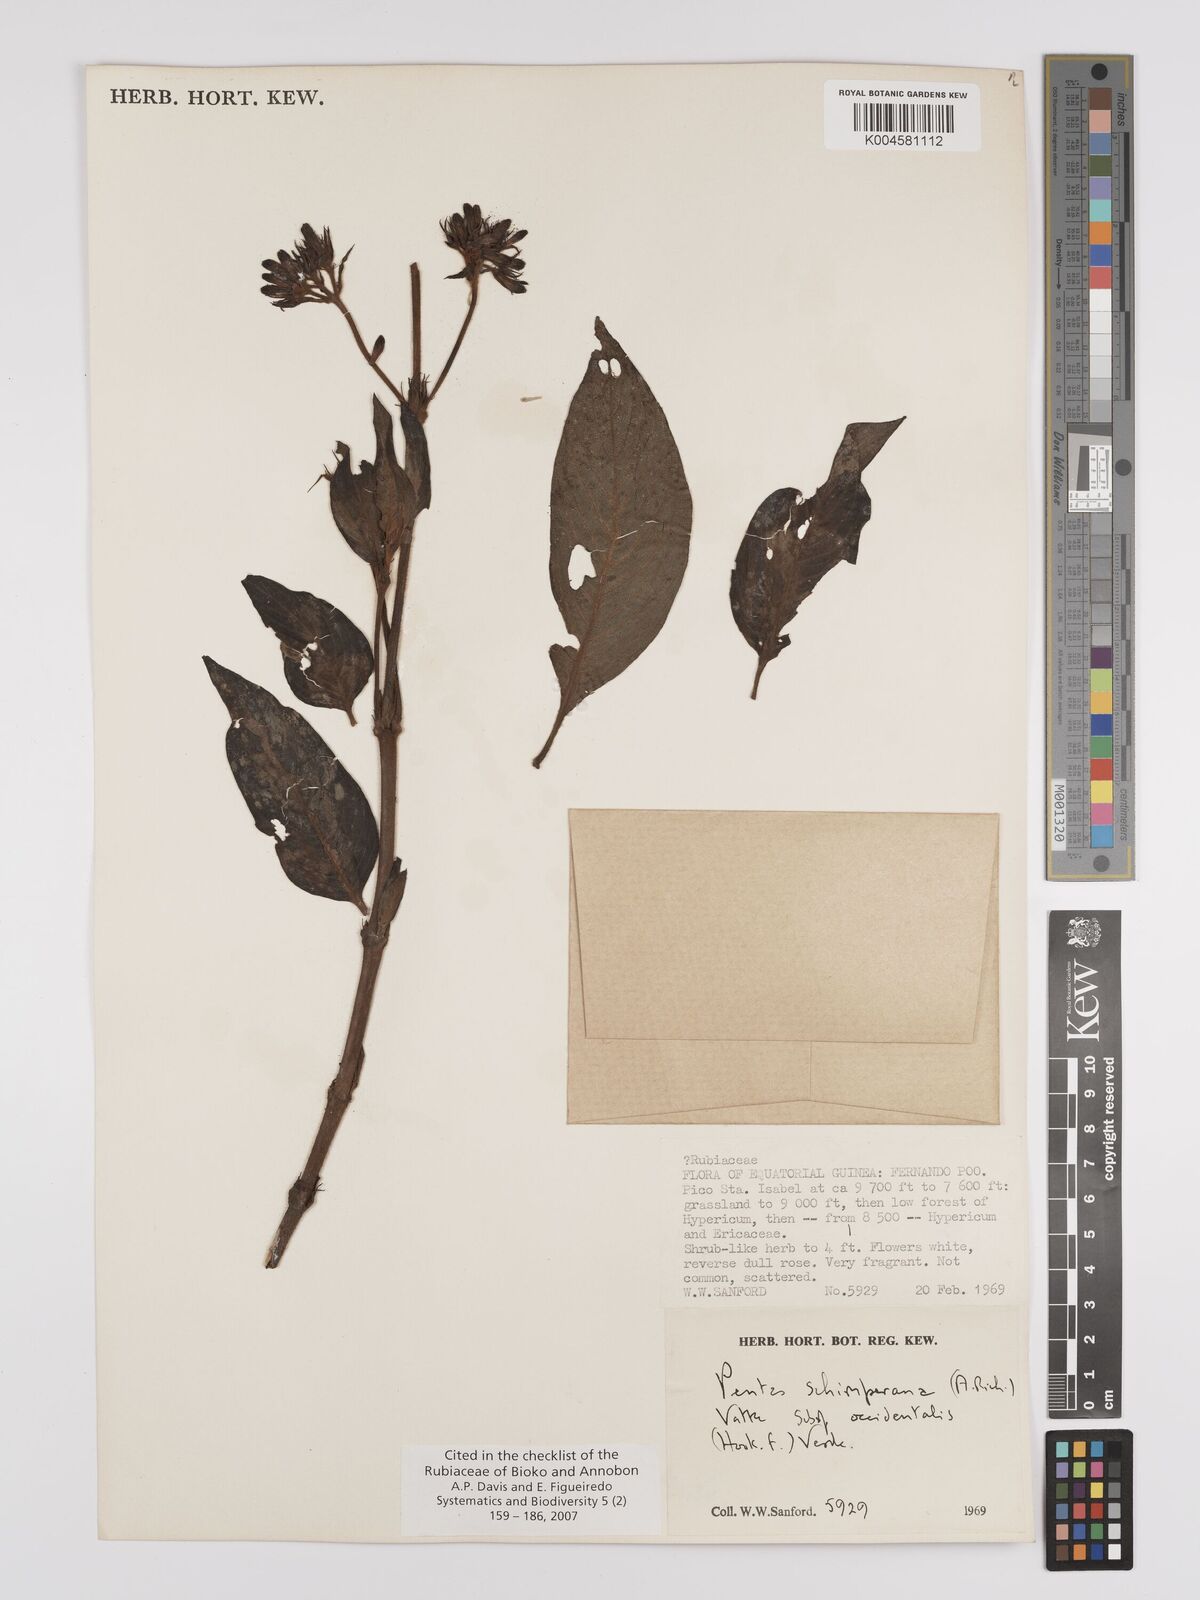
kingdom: Plantae
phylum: Tracheophyta
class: Magnoliopsida
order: Gentianales
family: Rubiaceae
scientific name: Rubiaceae
